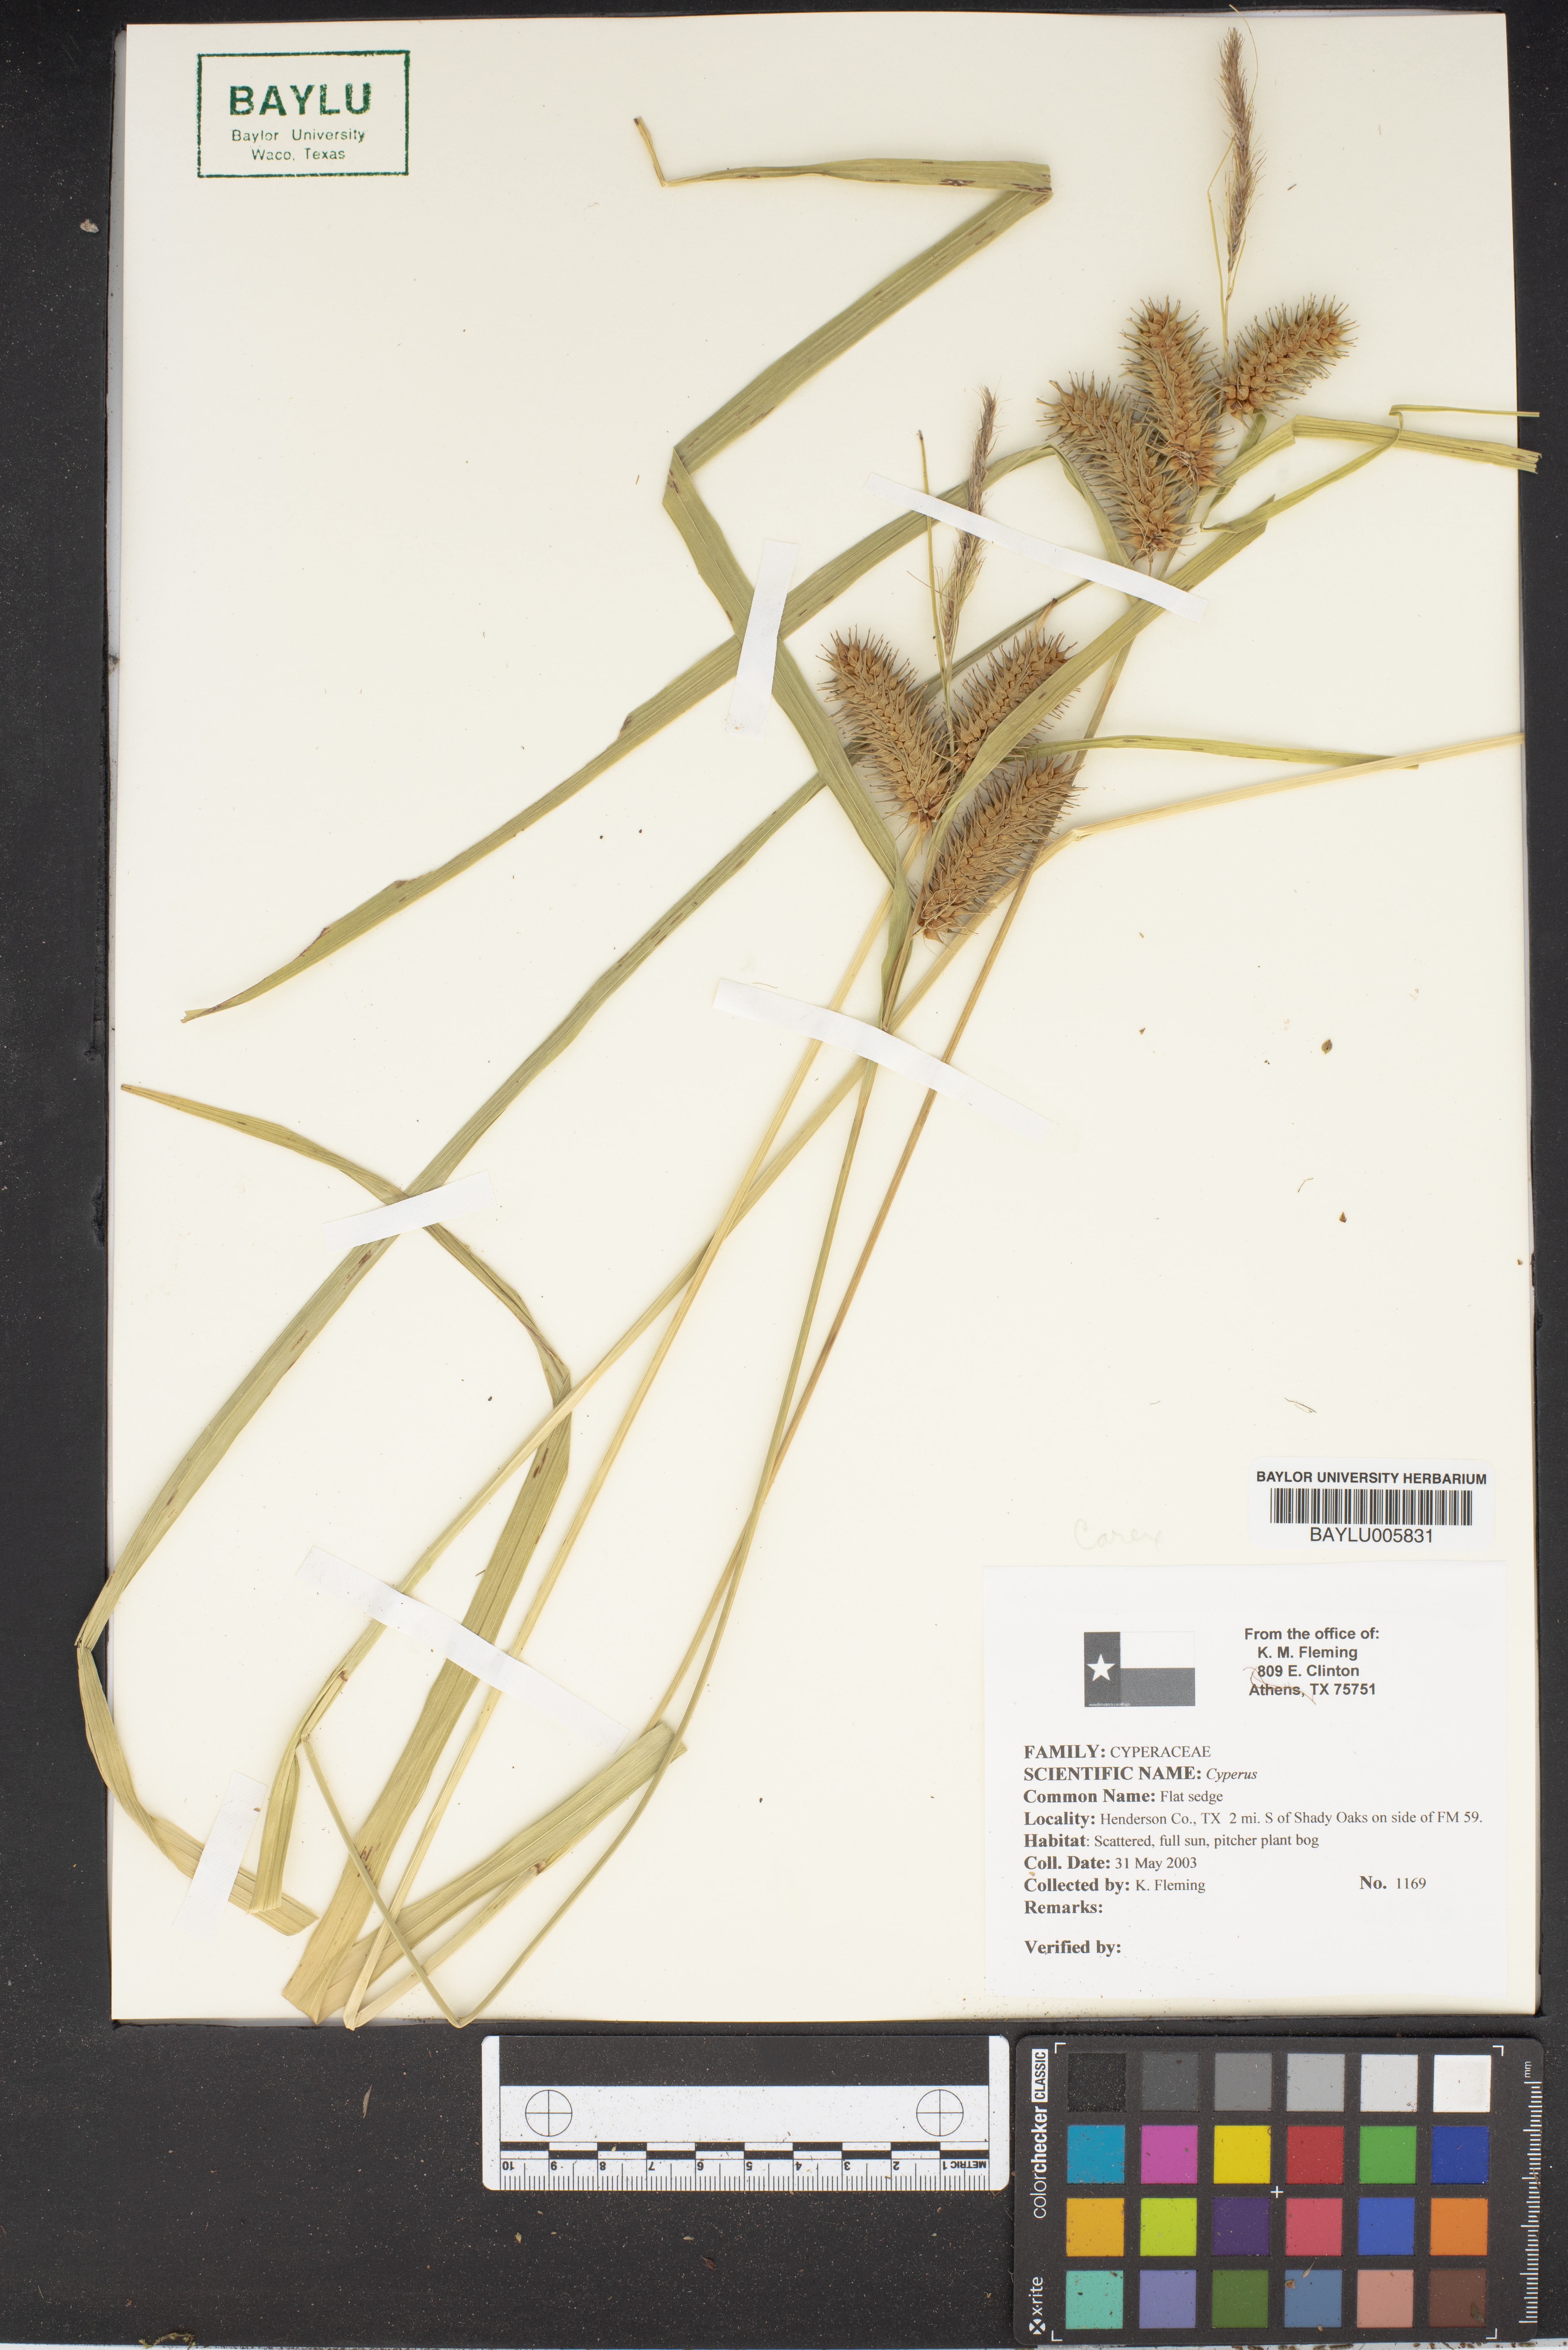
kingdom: Plantae
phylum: Tracheophyta
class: Liliopsida
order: Poales
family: Cyperaceae
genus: Cyperus
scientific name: Cyperus
